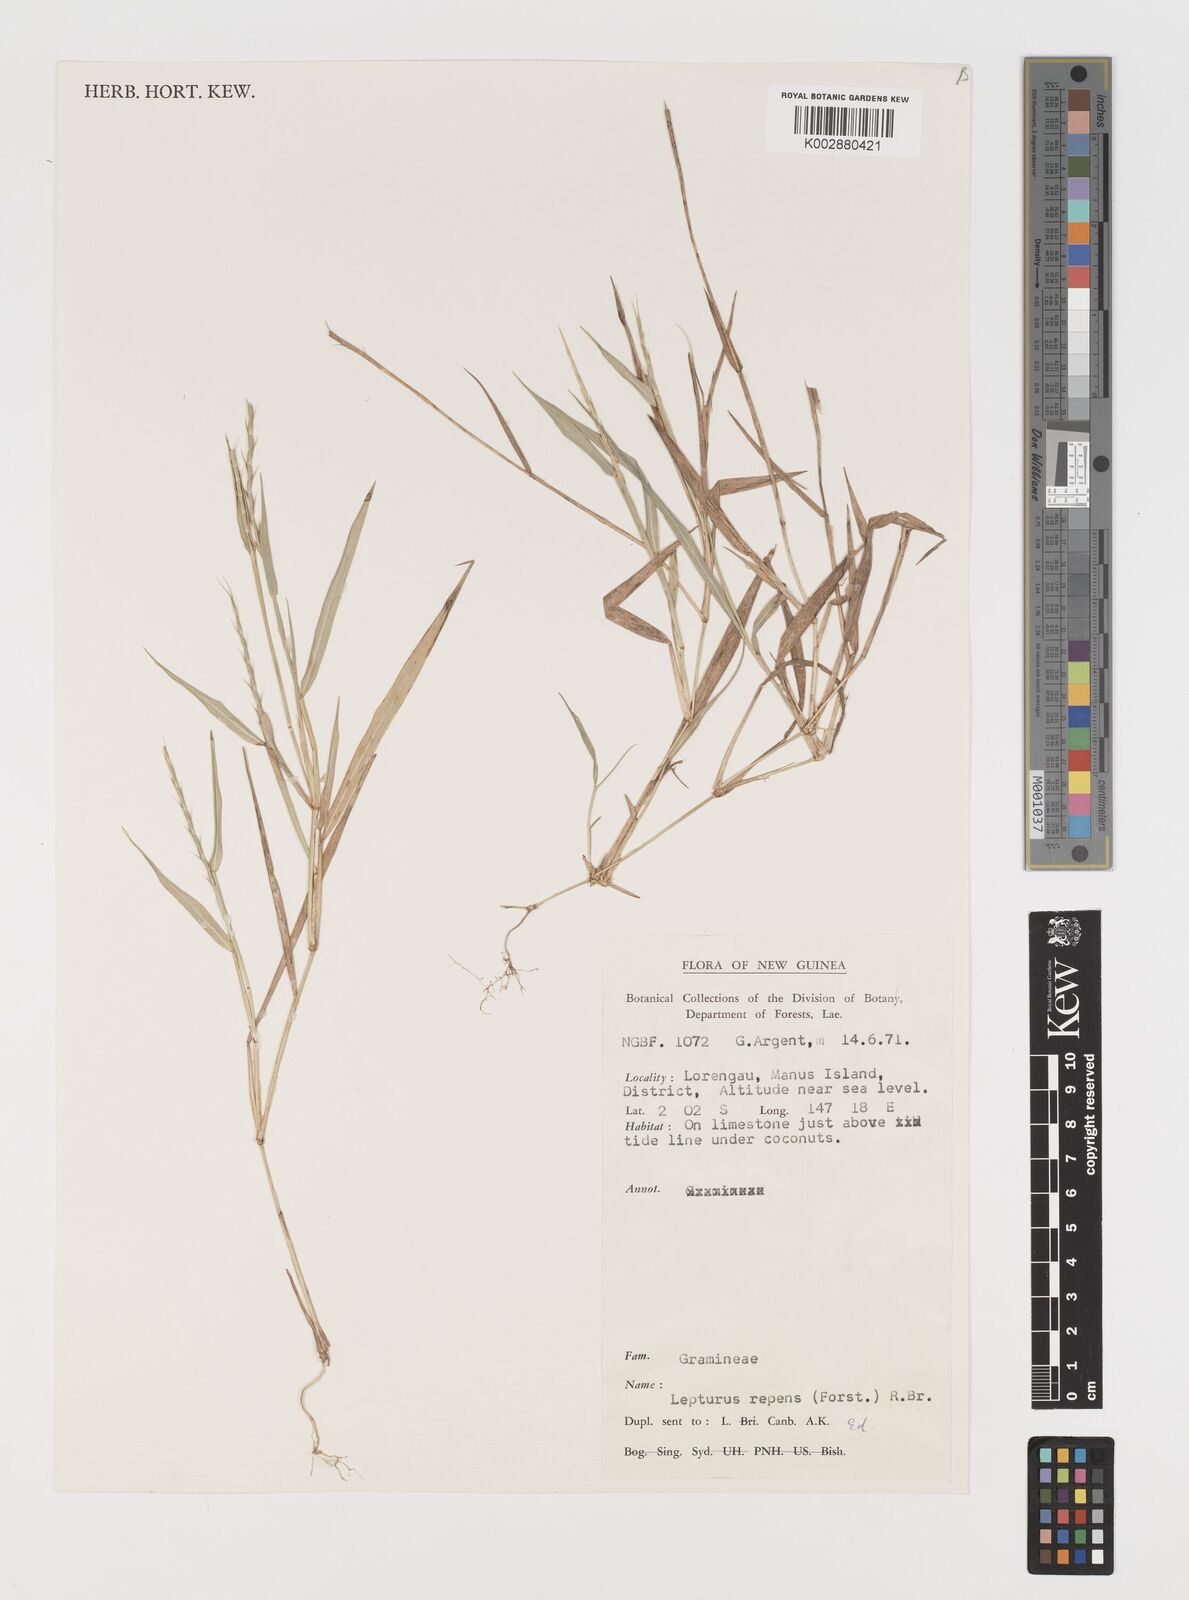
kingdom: Plantae
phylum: Tracheophyta
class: Liliopsida
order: Poales
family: Poaceae
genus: Lepturus
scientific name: Lepturus repens
